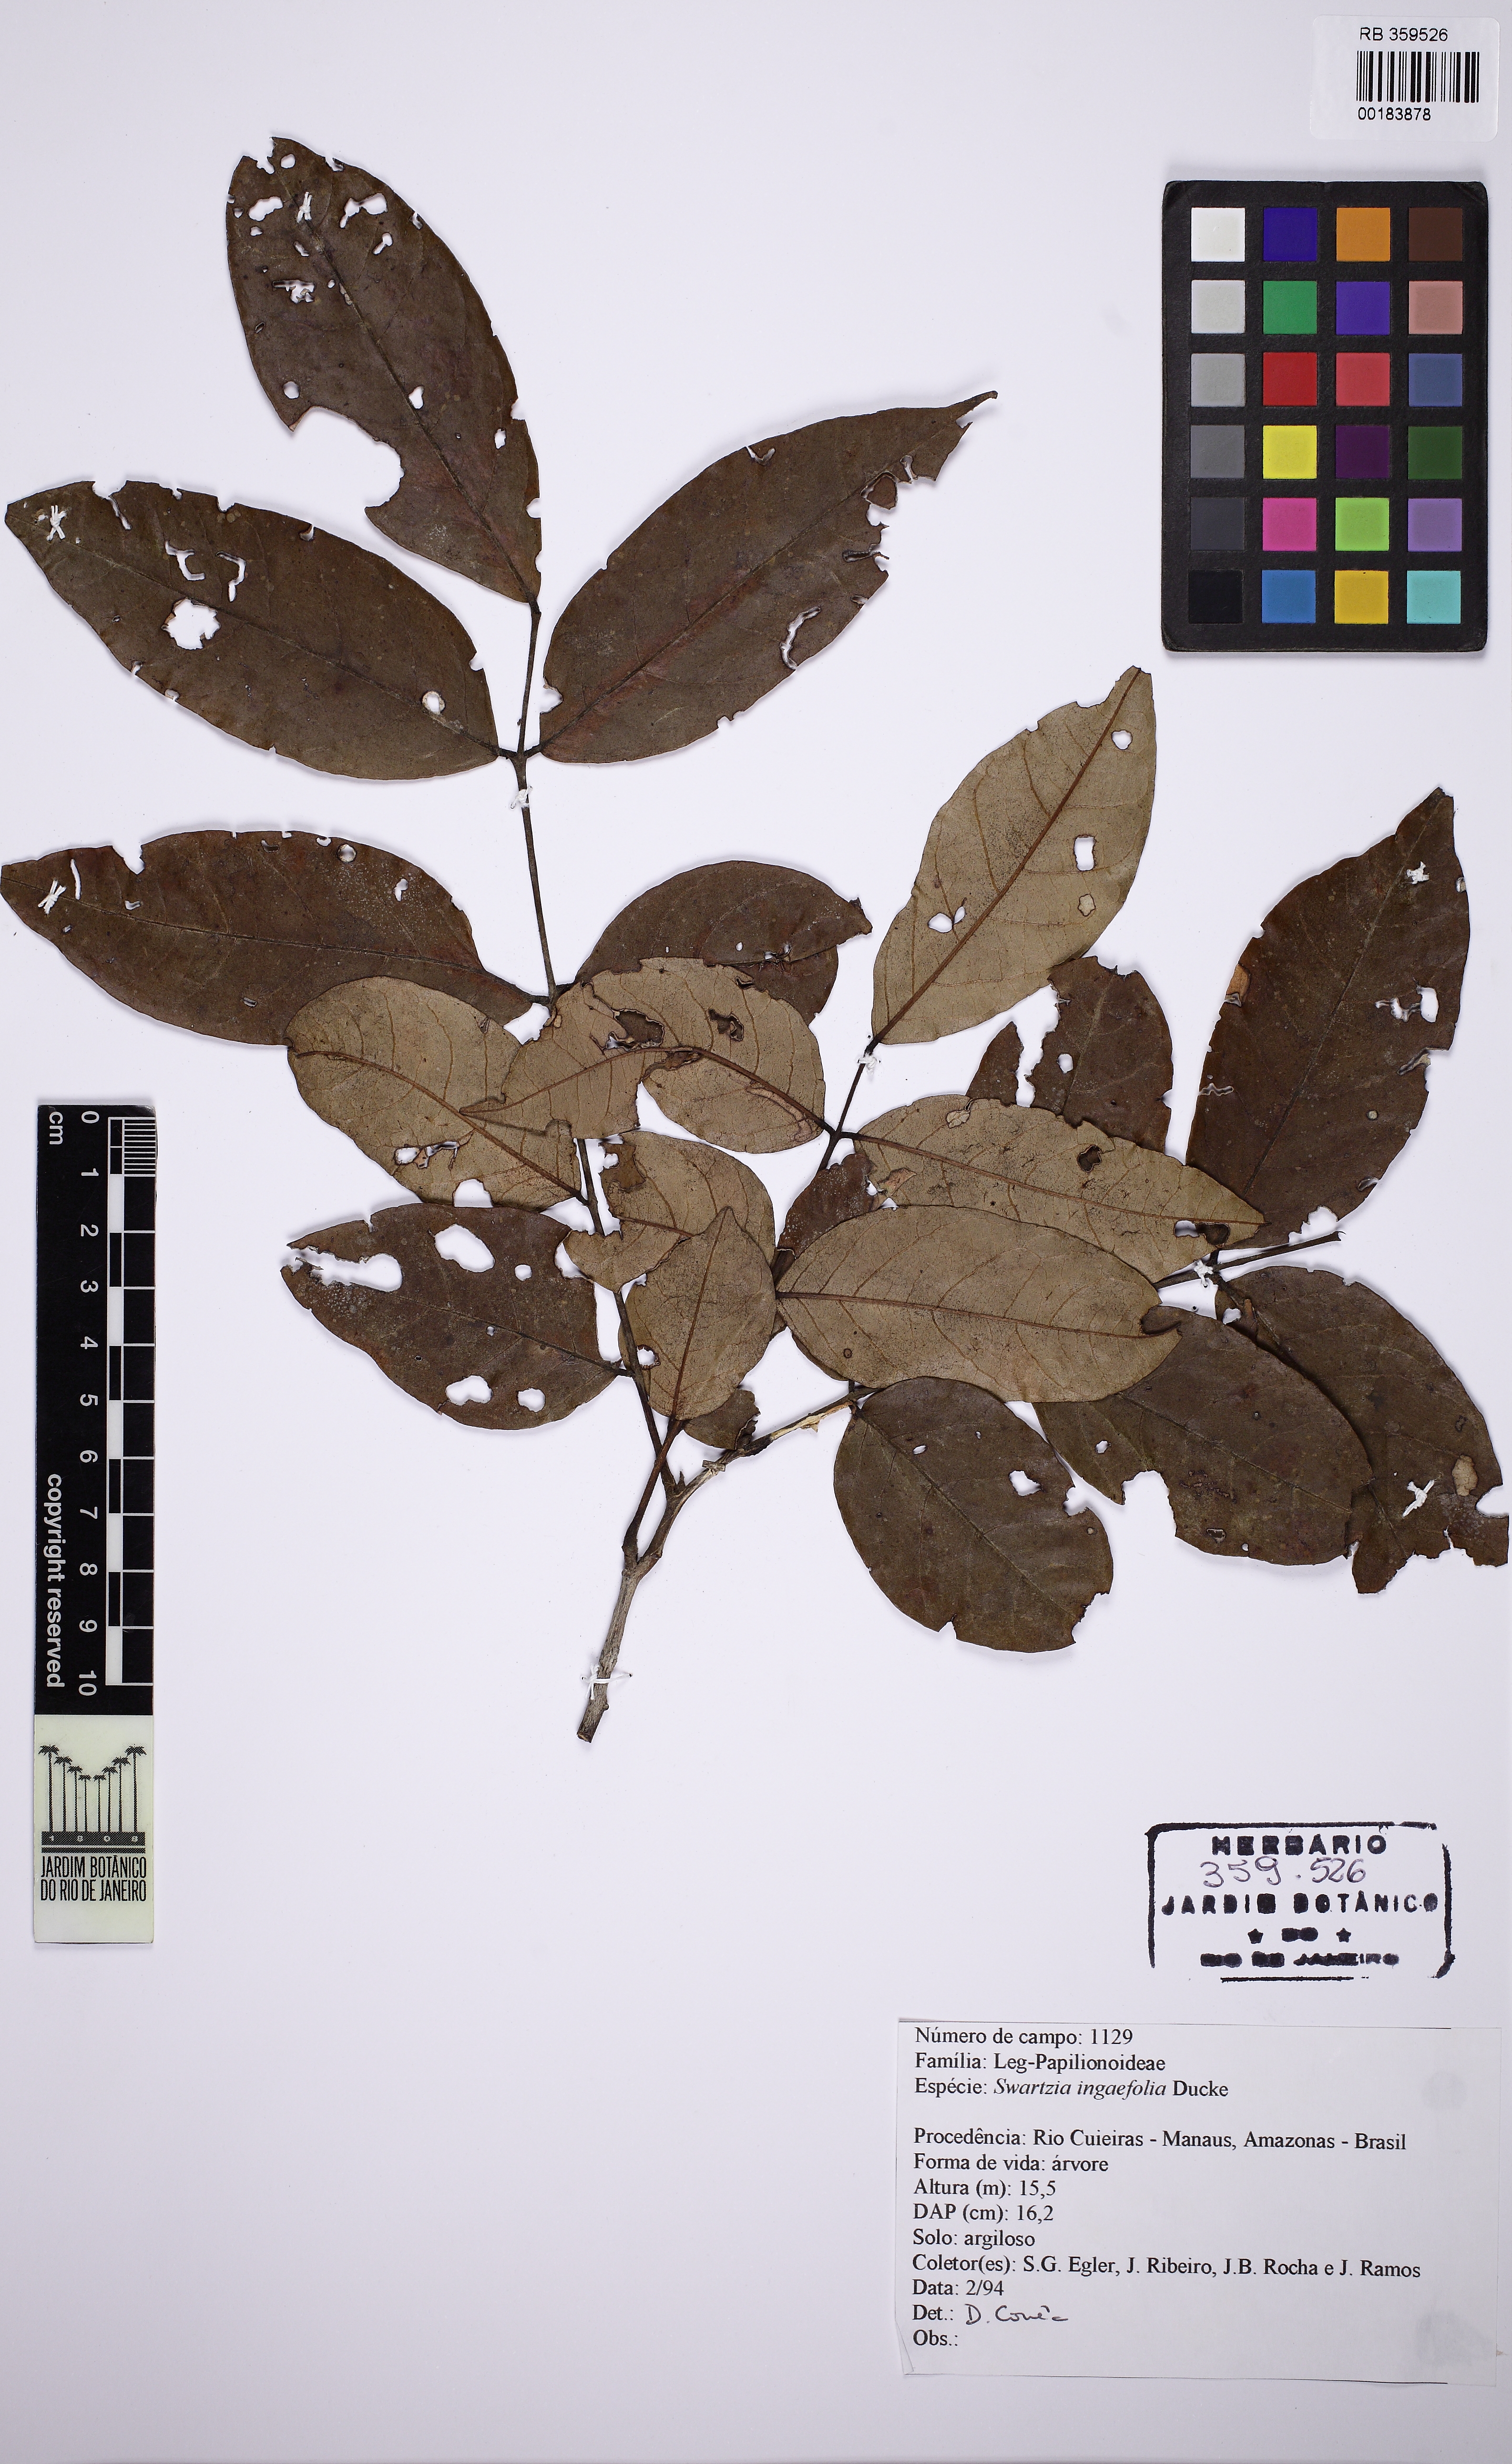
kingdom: Plantae
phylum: Tracheophyta
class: Magnoliopsida
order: Fabales
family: Fabaceae
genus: Swartzia
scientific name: Swartzia ingaefolia
